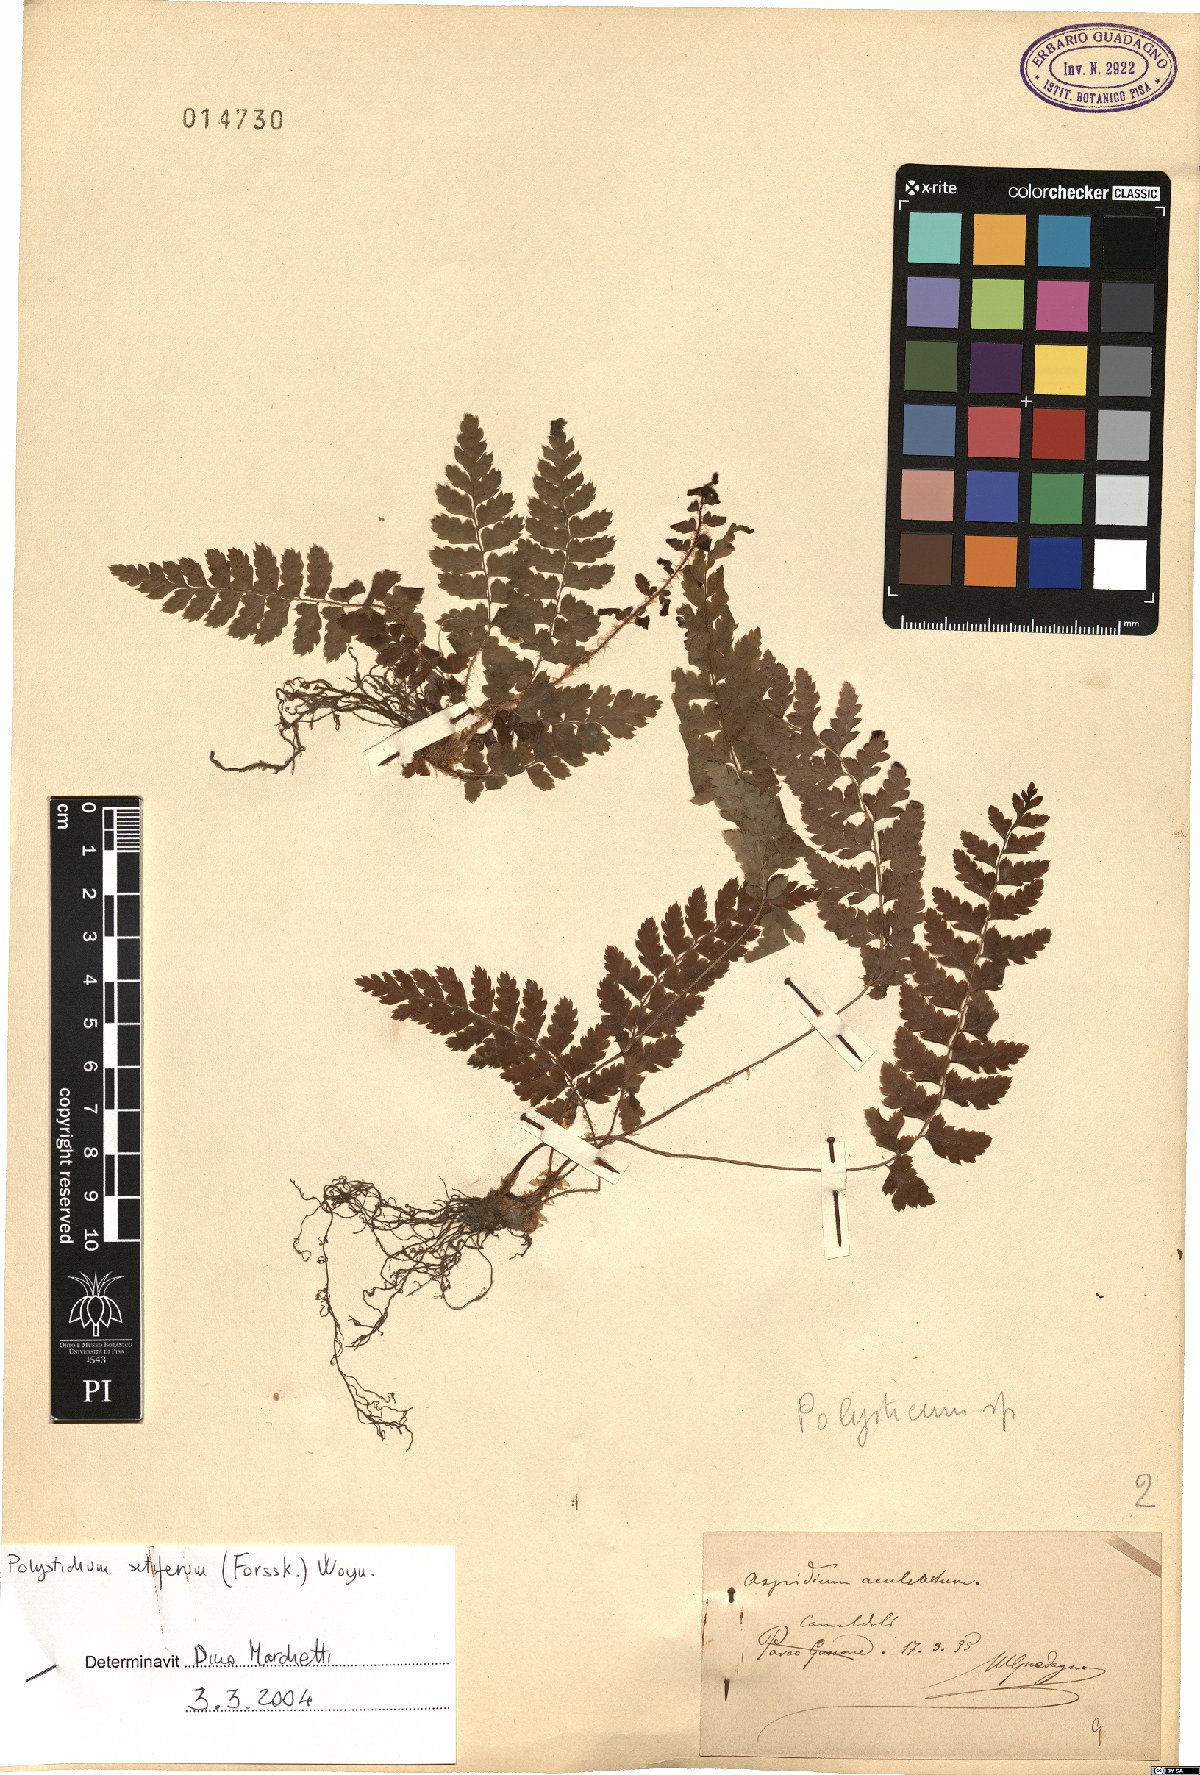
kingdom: Plantae
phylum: Tracheophyta
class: Polypodiopsida
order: Polypodiales
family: Dryopteridaceae
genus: Polystichum
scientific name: Polystichum setiferum
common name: Soft shield-fern
